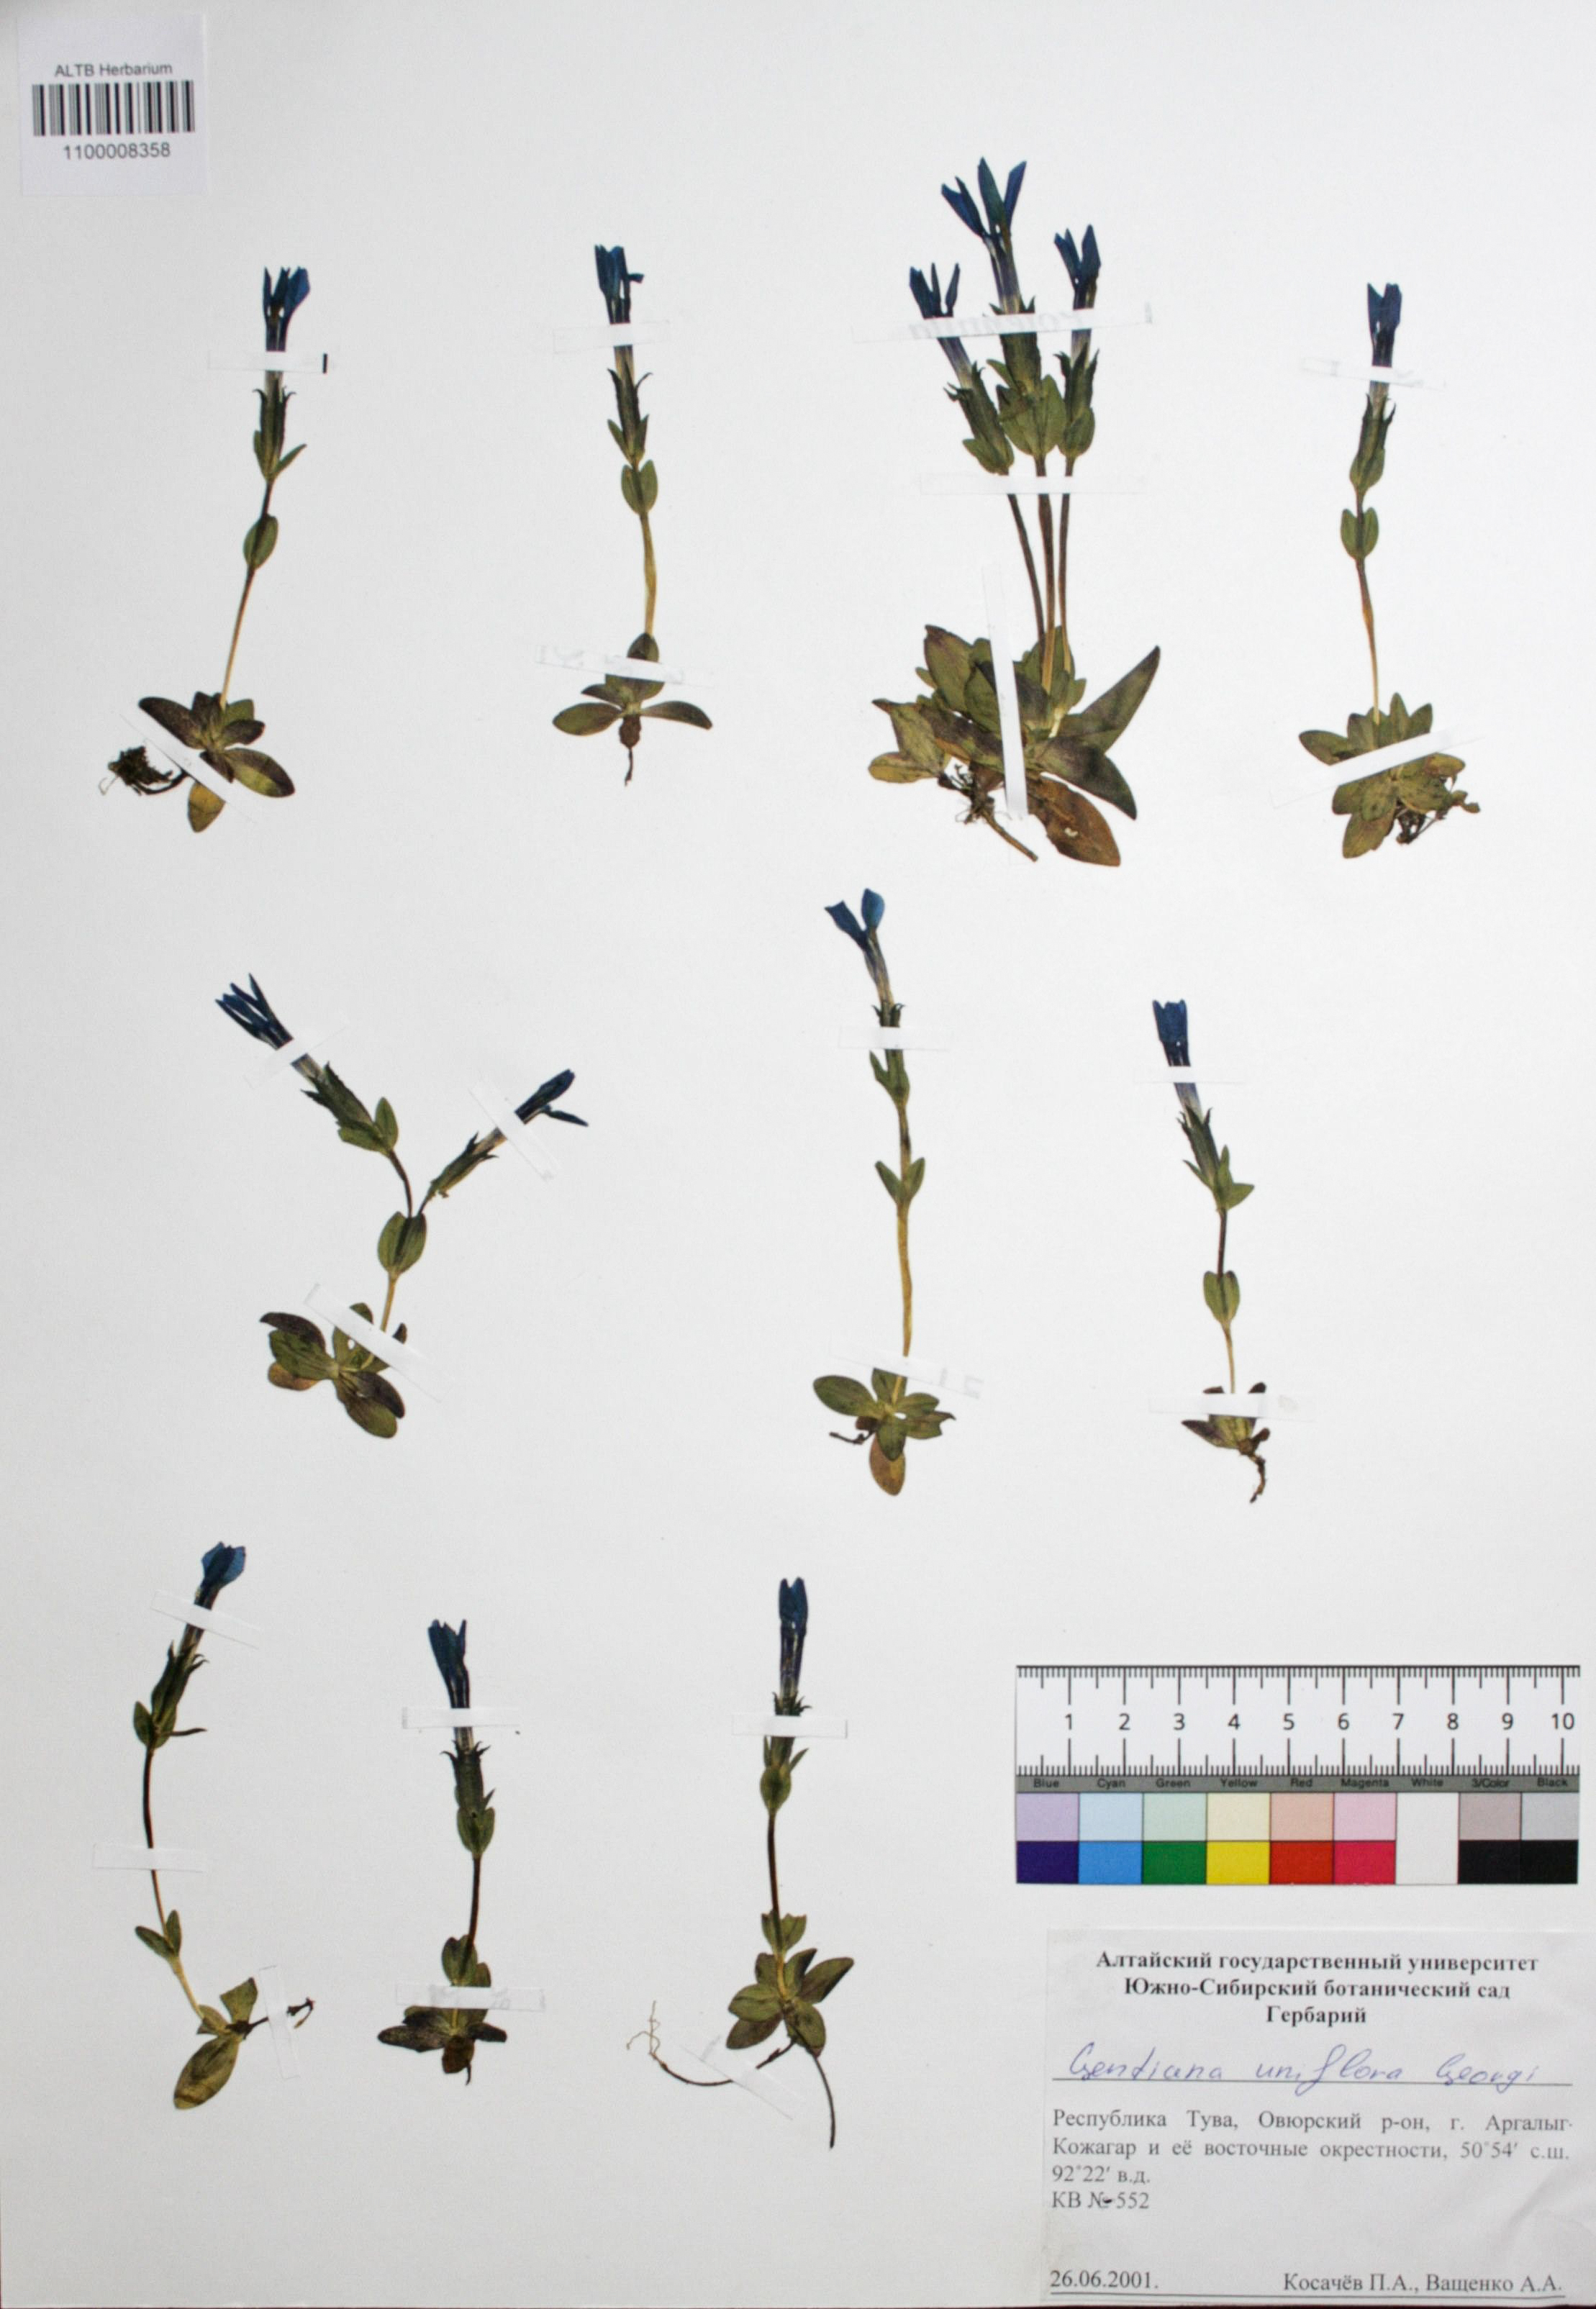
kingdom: Plantae
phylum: Tracheophyta
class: Magnoliopsida
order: Gentianales
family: Gentianaceae
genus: Gentiana
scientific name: Gentiana uniflora
